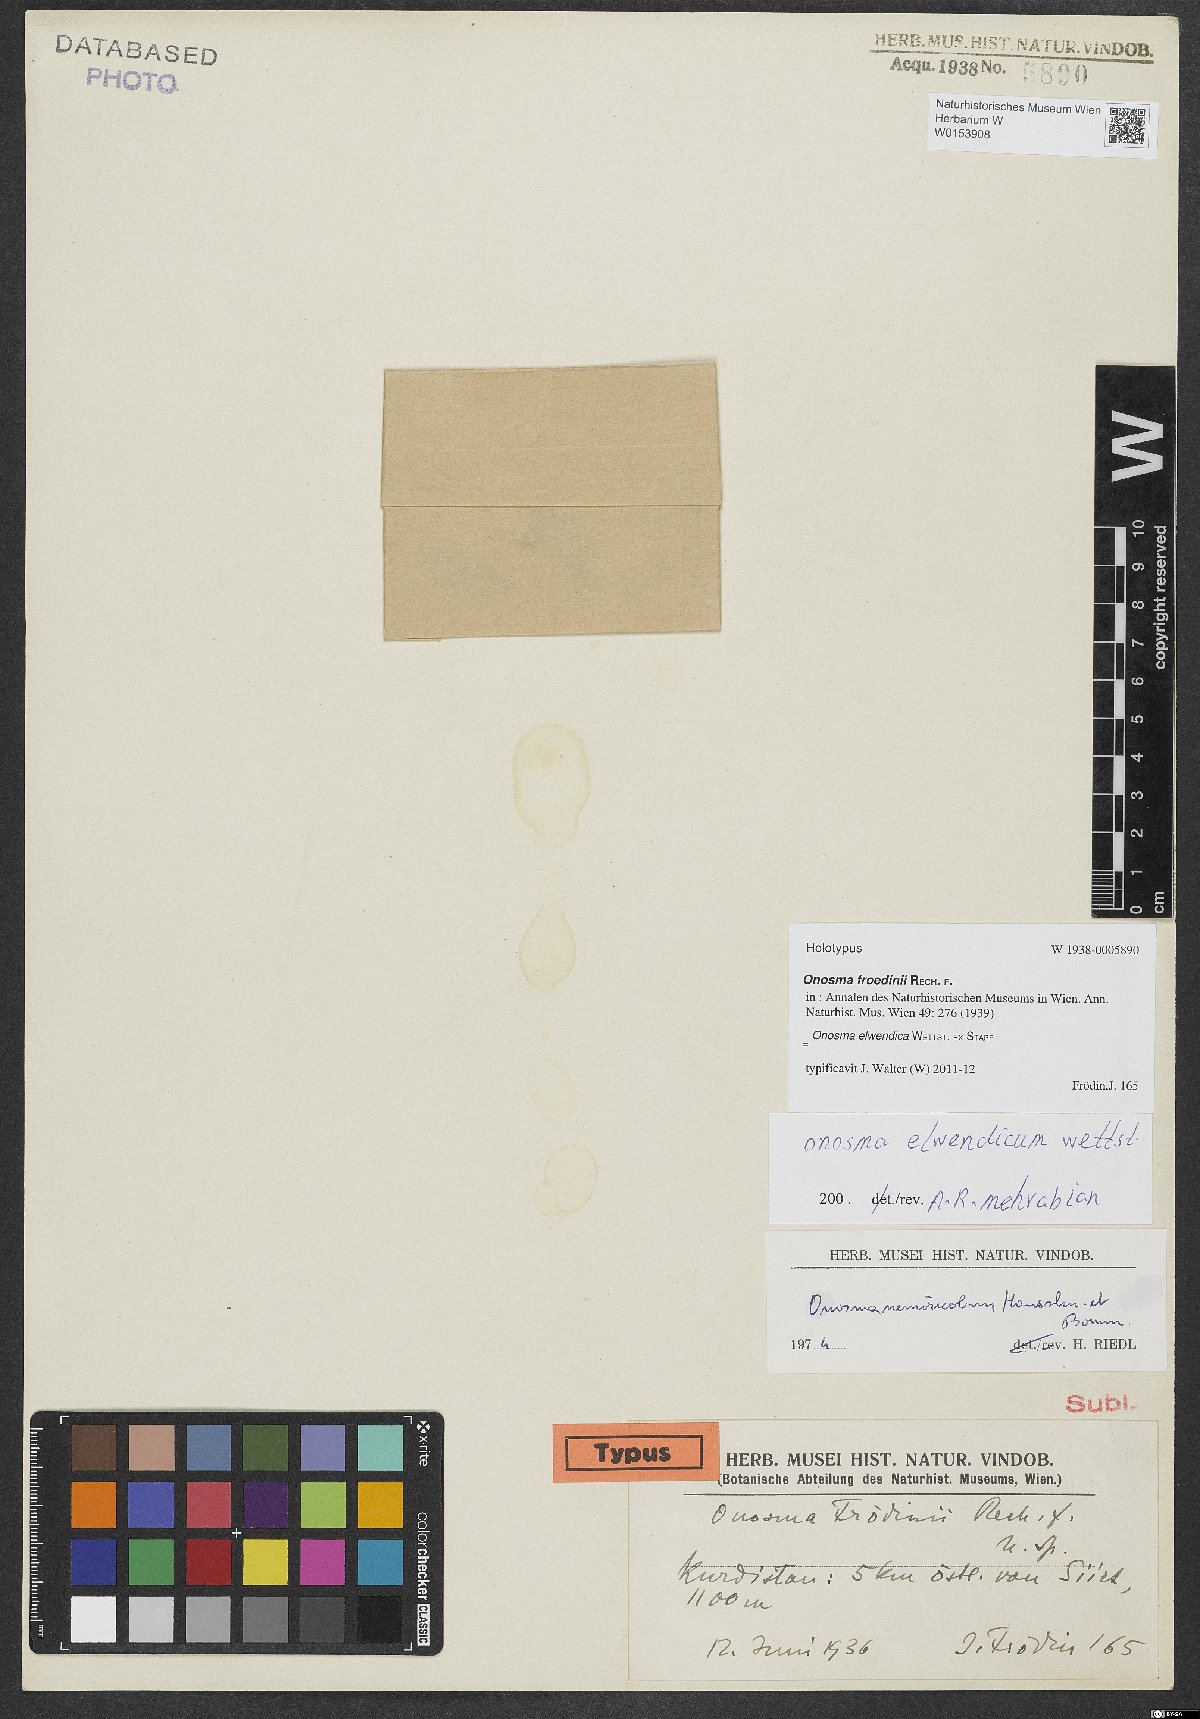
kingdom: Plantae
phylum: Tracheophyta
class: Magnoliopsida
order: Boraginales
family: Boraginaceae
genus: Onosma
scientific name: Onosma nemoricola
